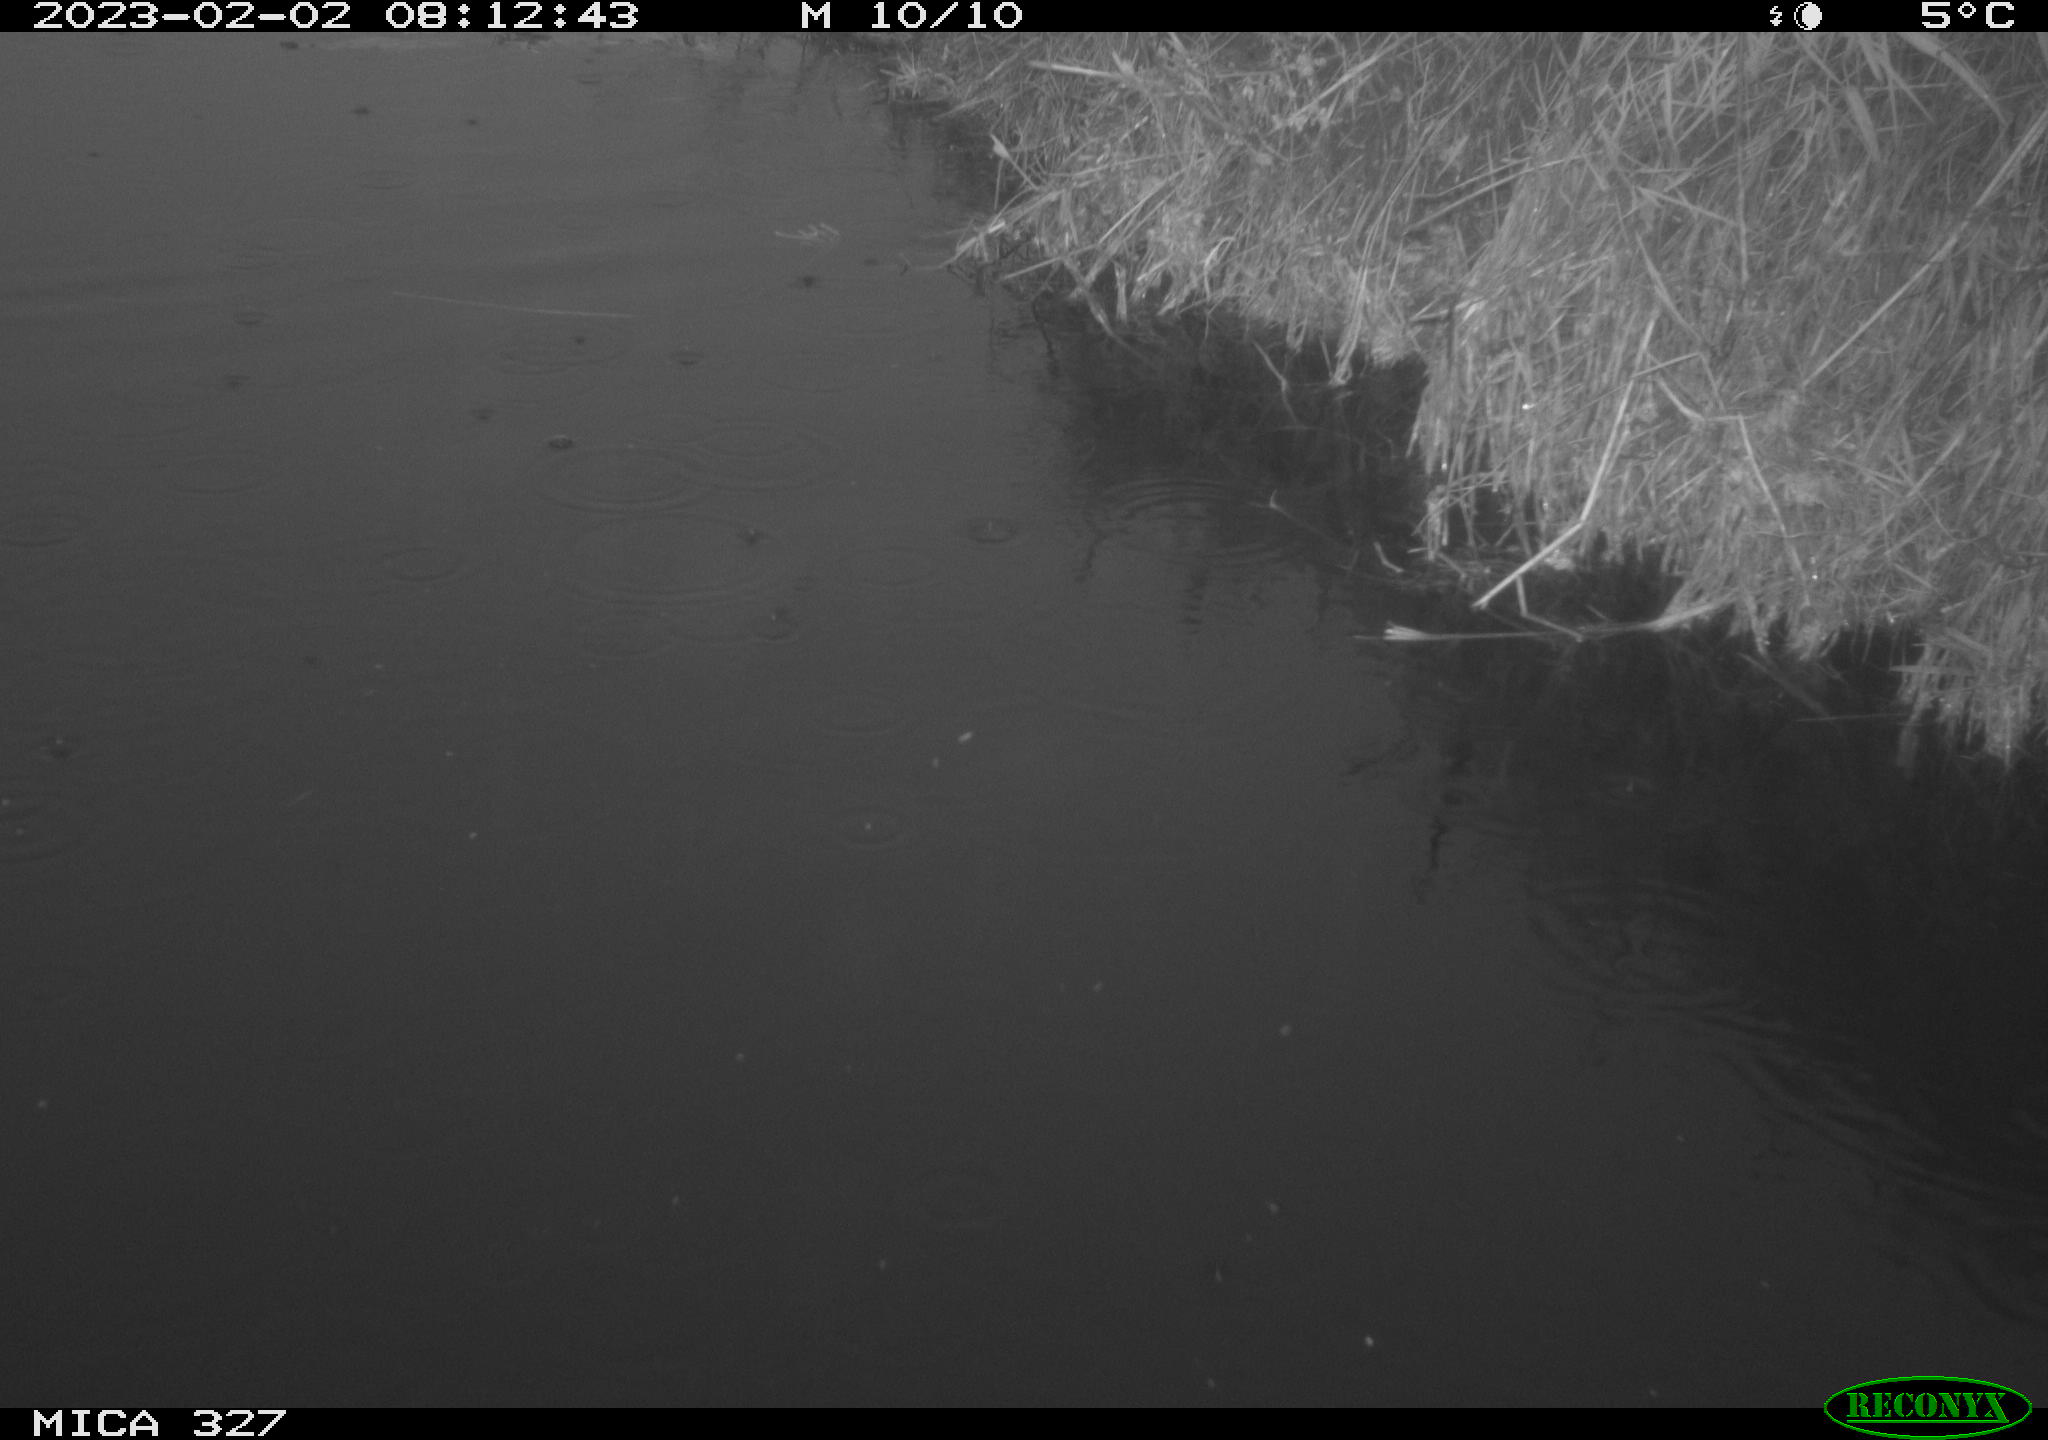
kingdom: Animalia
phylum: Chordata
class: Aves
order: Podicipediformes
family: Podicipedidae
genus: Tachybaptus
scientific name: Tachybaptus ruficollis
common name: Little grebe
